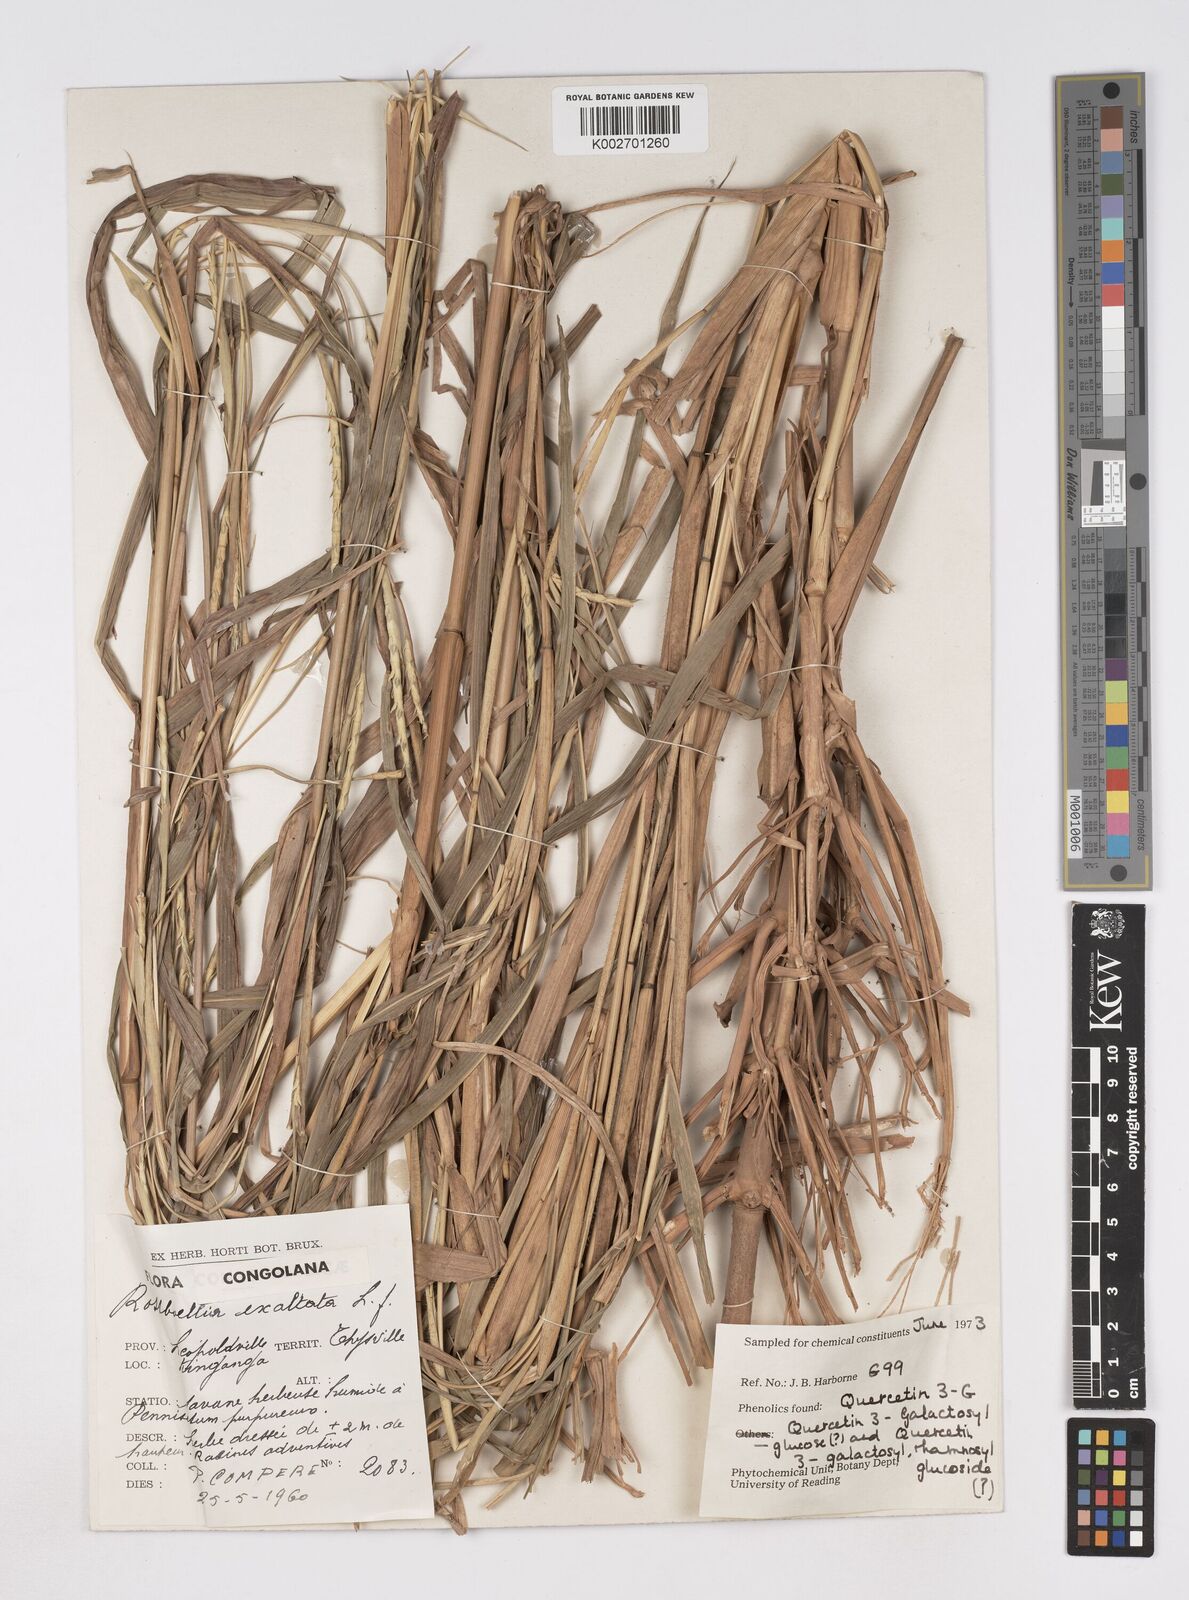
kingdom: Plantae
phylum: Tracheophyta
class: Liliopsida
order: Poales
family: Poaceae
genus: Rottboellia
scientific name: Rottboellia
